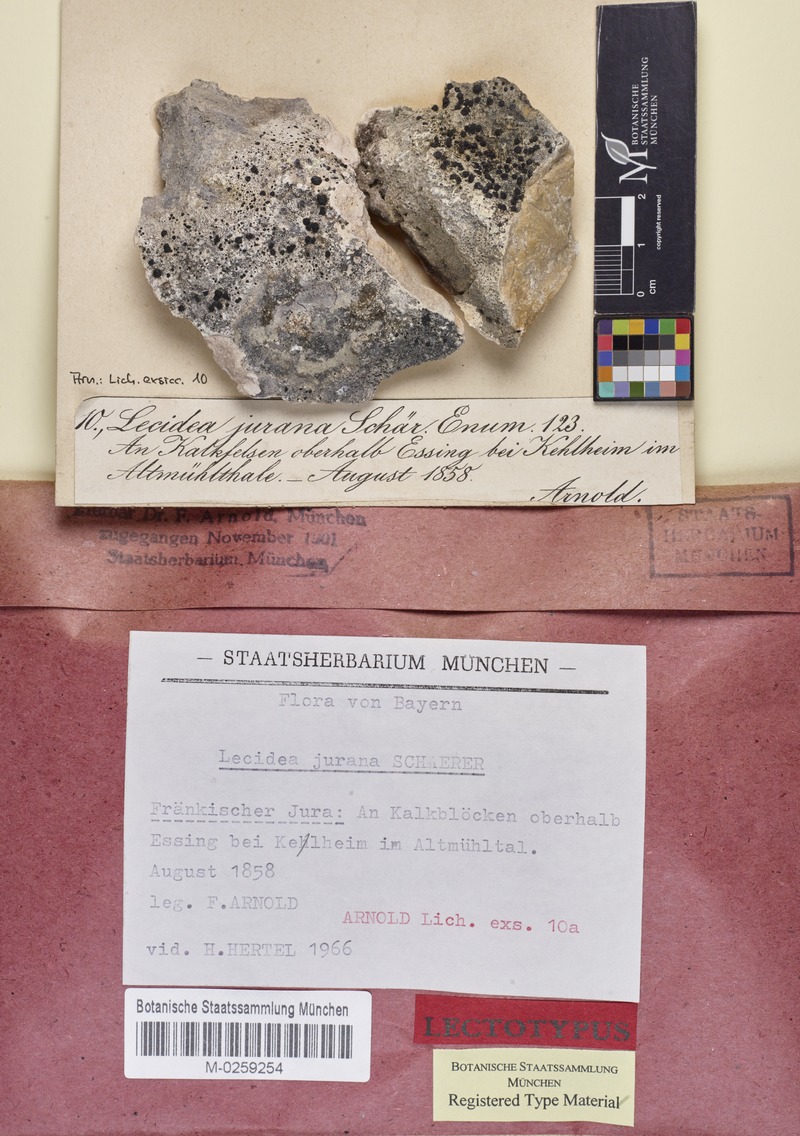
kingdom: Fungi
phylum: Ascomycota
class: Lecanoromycetes
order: Lecideales
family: Lecideaceae
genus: Farnoldia
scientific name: Farnoldia jurana
